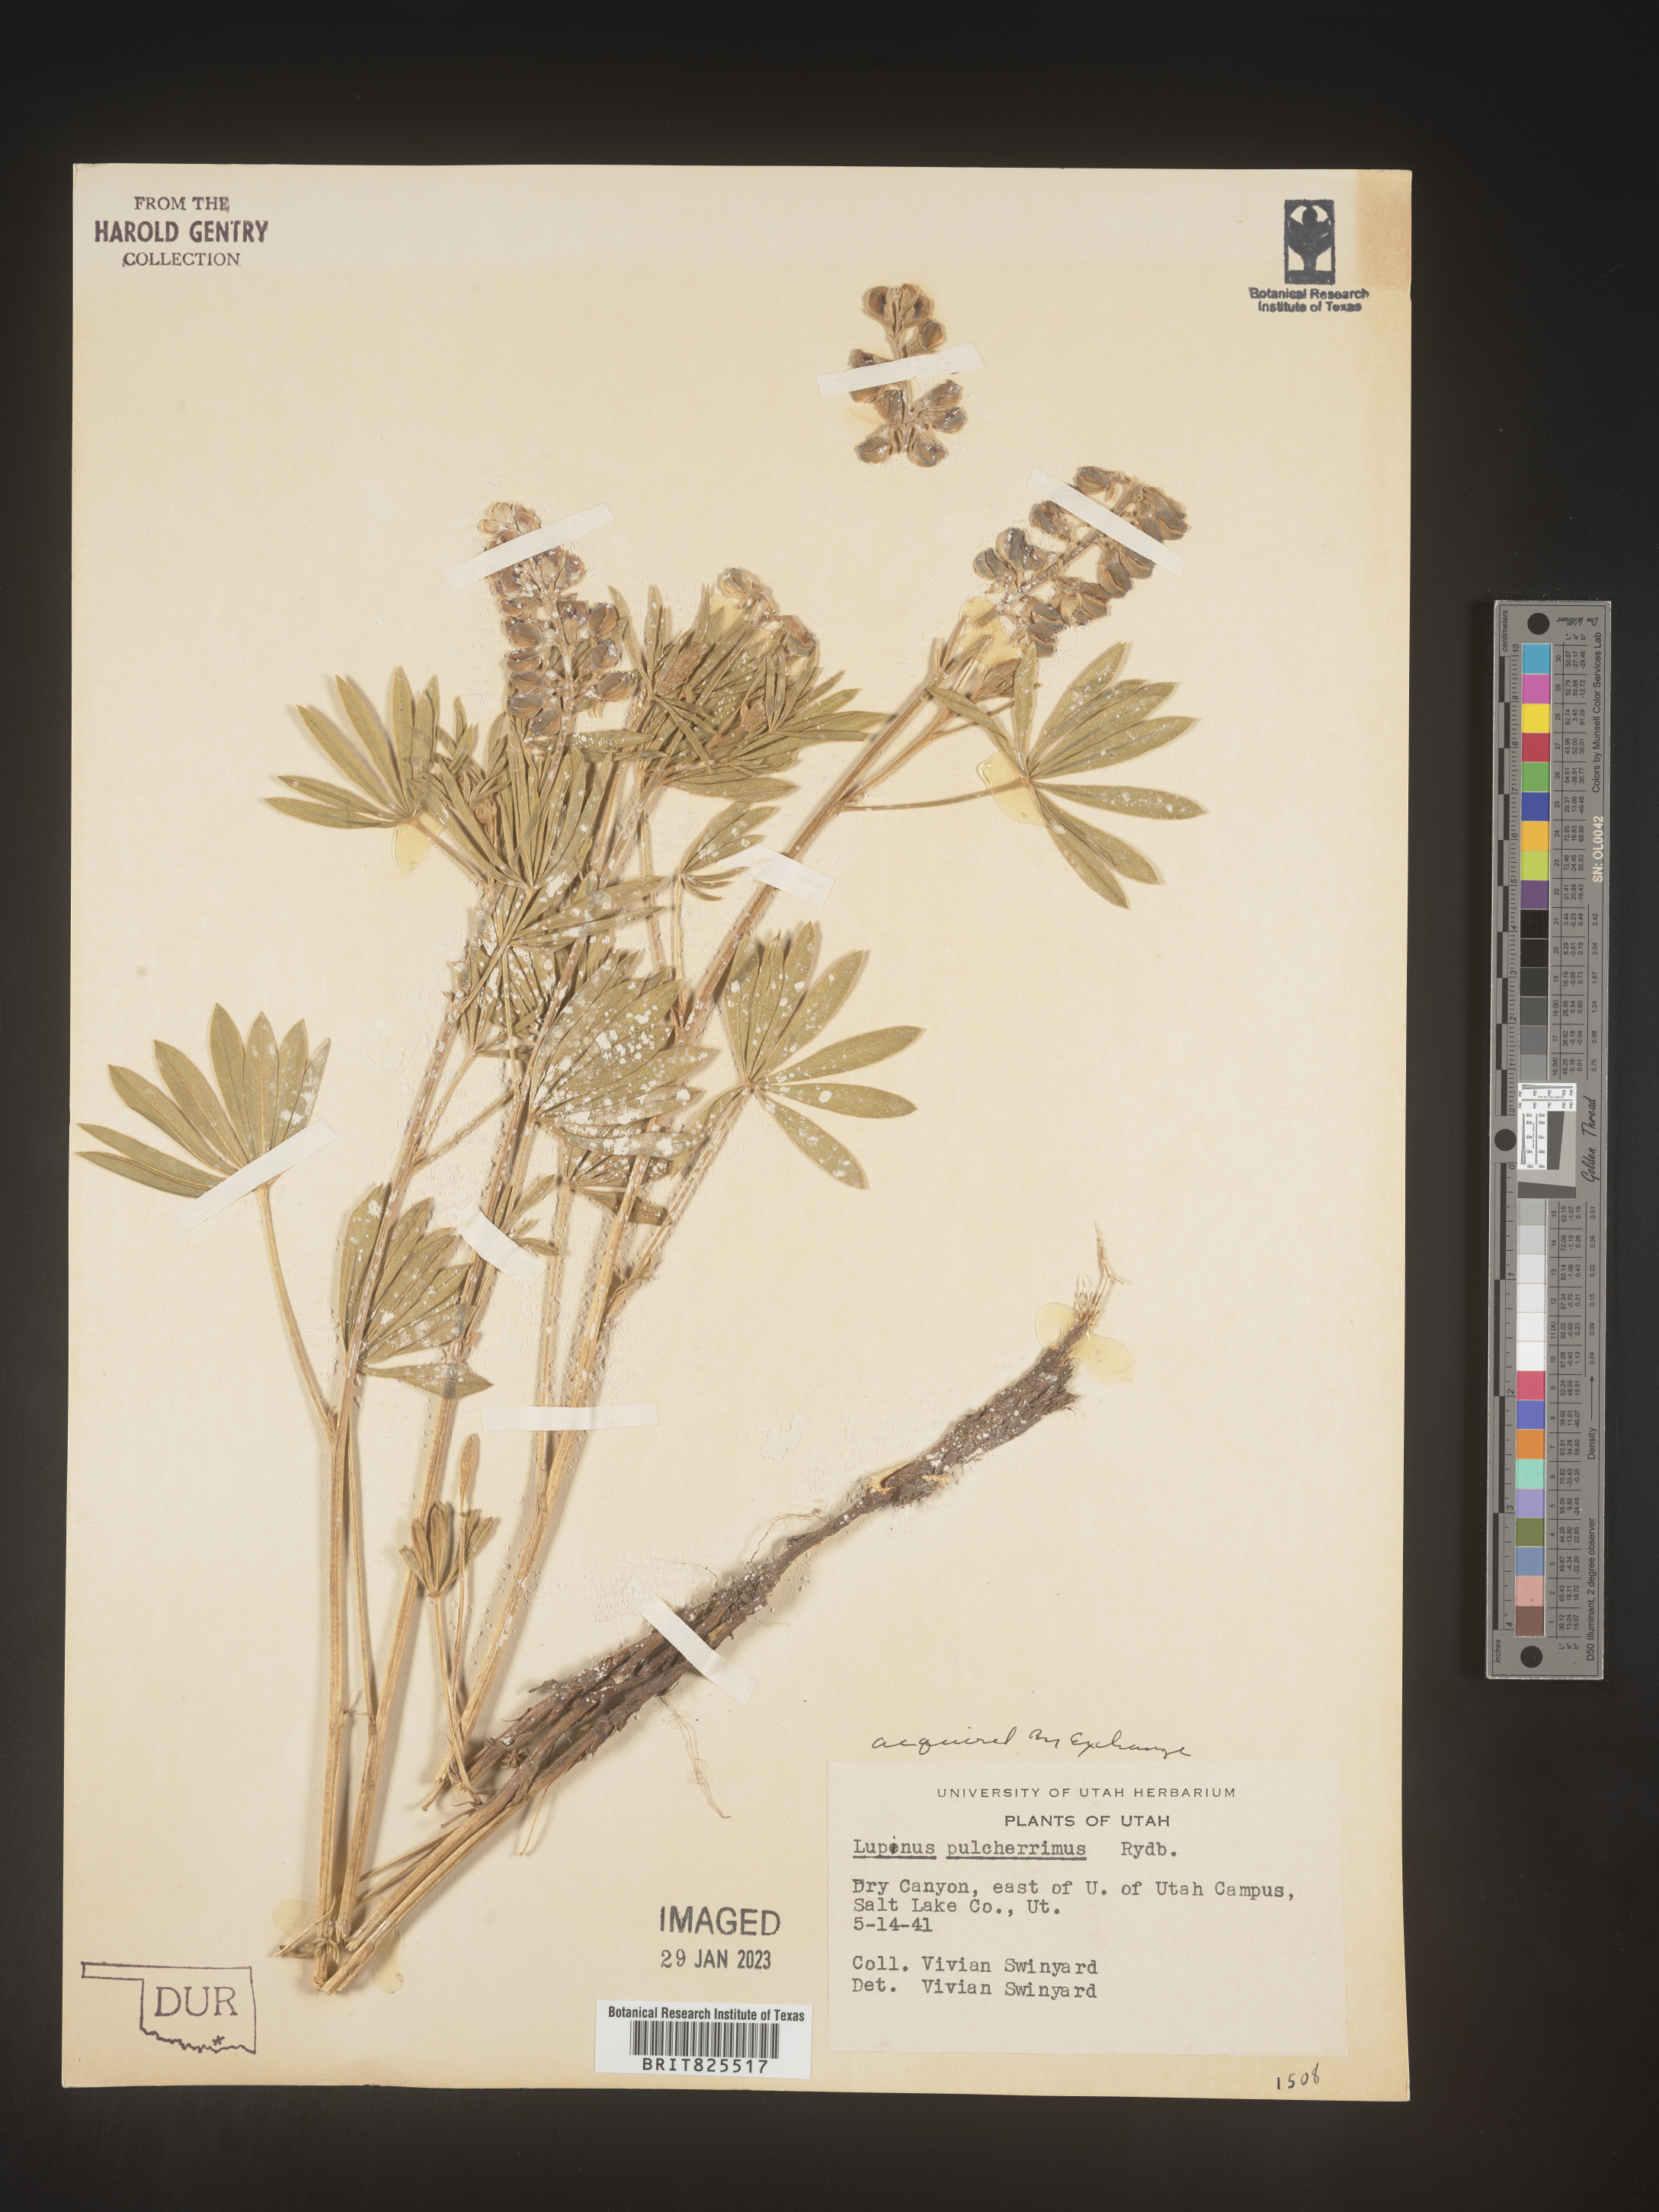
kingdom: Plantae
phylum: Tracheophyta
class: Magnoliopsida
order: Fabales
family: Fabaceae
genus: Lupinus
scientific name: Lupinus
